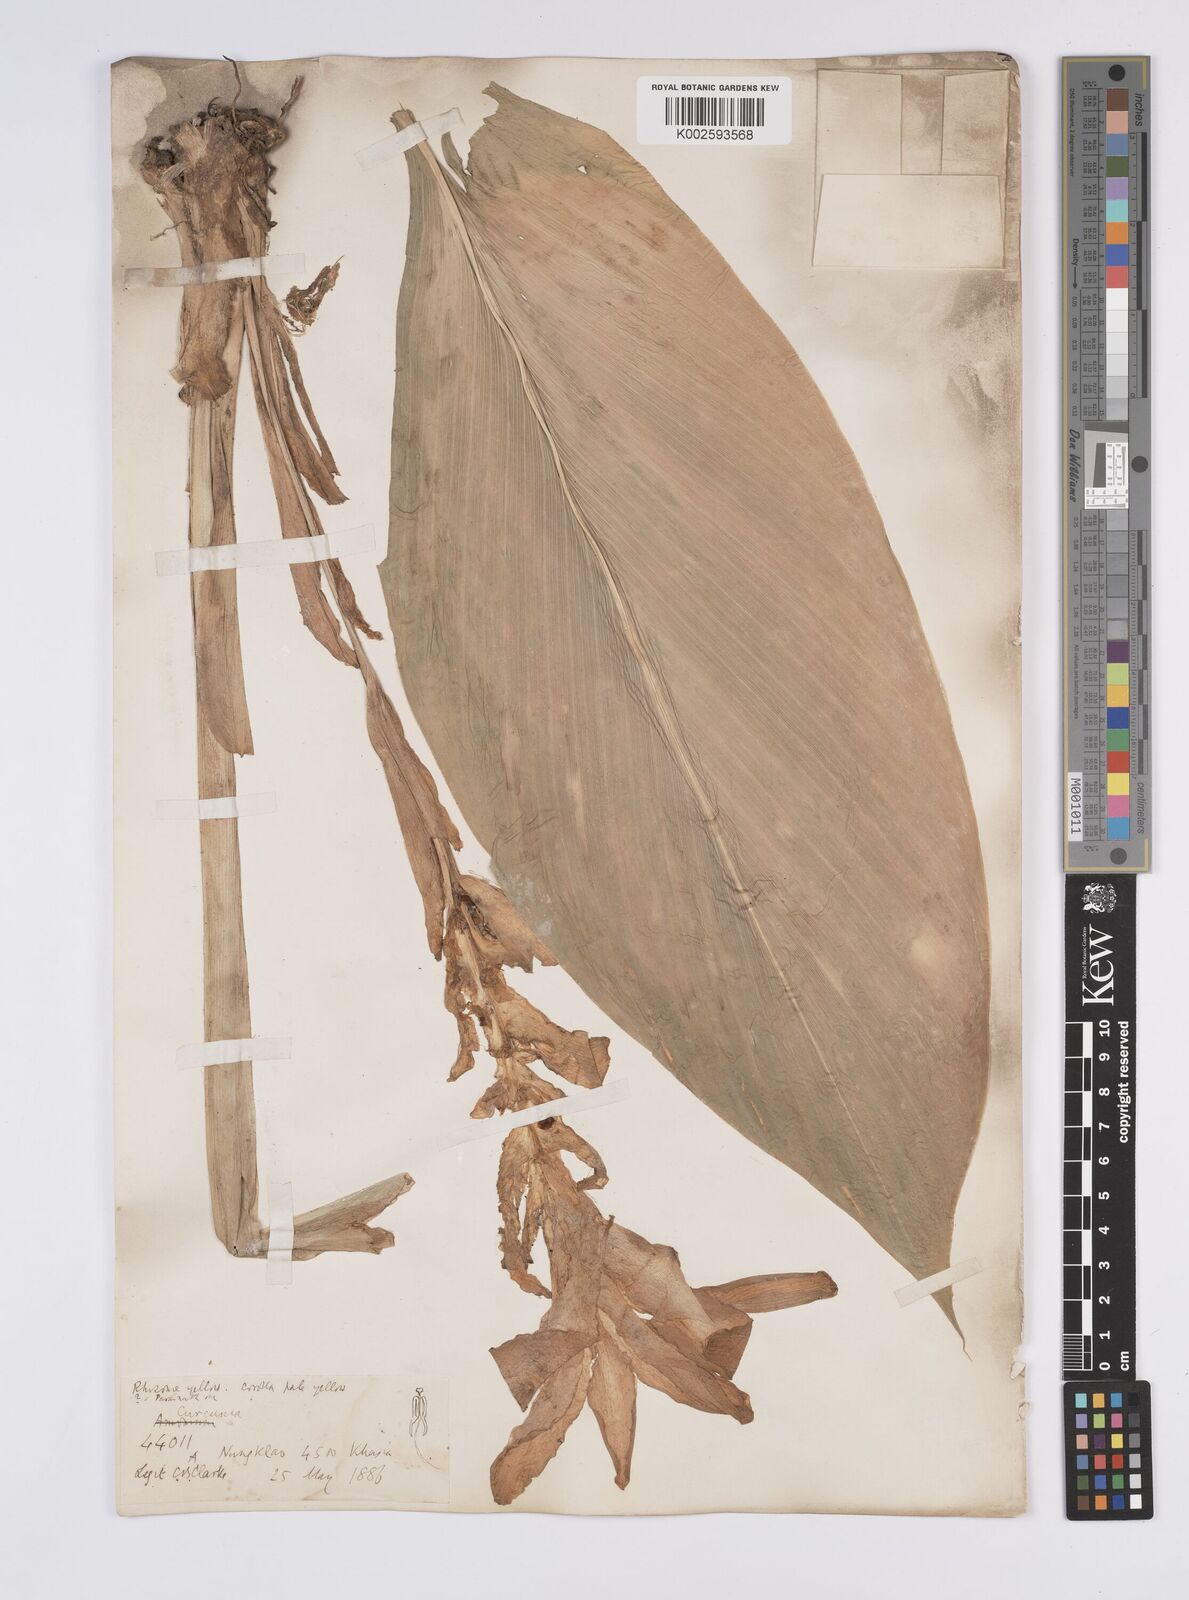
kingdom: Plantae
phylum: Tracheophyta
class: Liliopsida
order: Zingiberales
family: Zingiberaceae
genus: Curcuma
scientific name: Curcuma aromatica
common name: Wild turmeric
